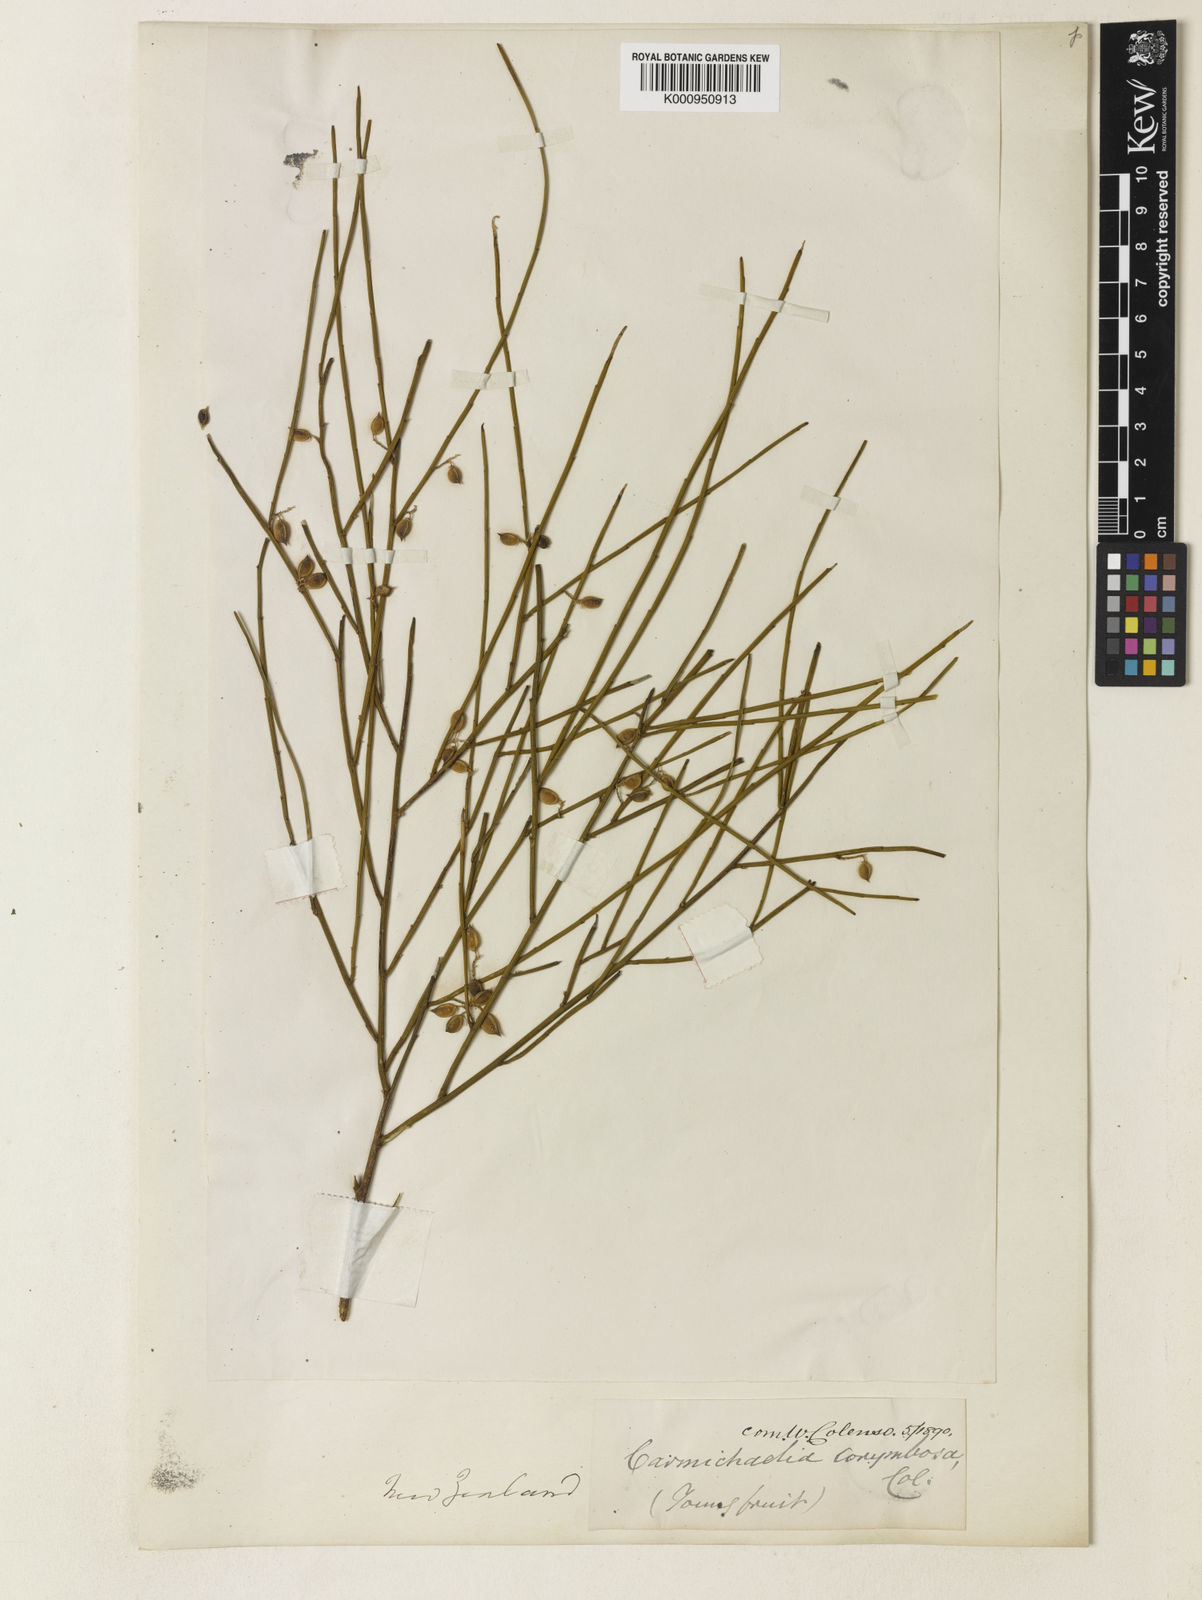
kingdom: Plantae
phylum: Tracheophyta
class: Magnoliopsida
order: Fabales
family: Fabaceae
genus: Carmichaelia
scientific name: Carmichaelia australis
